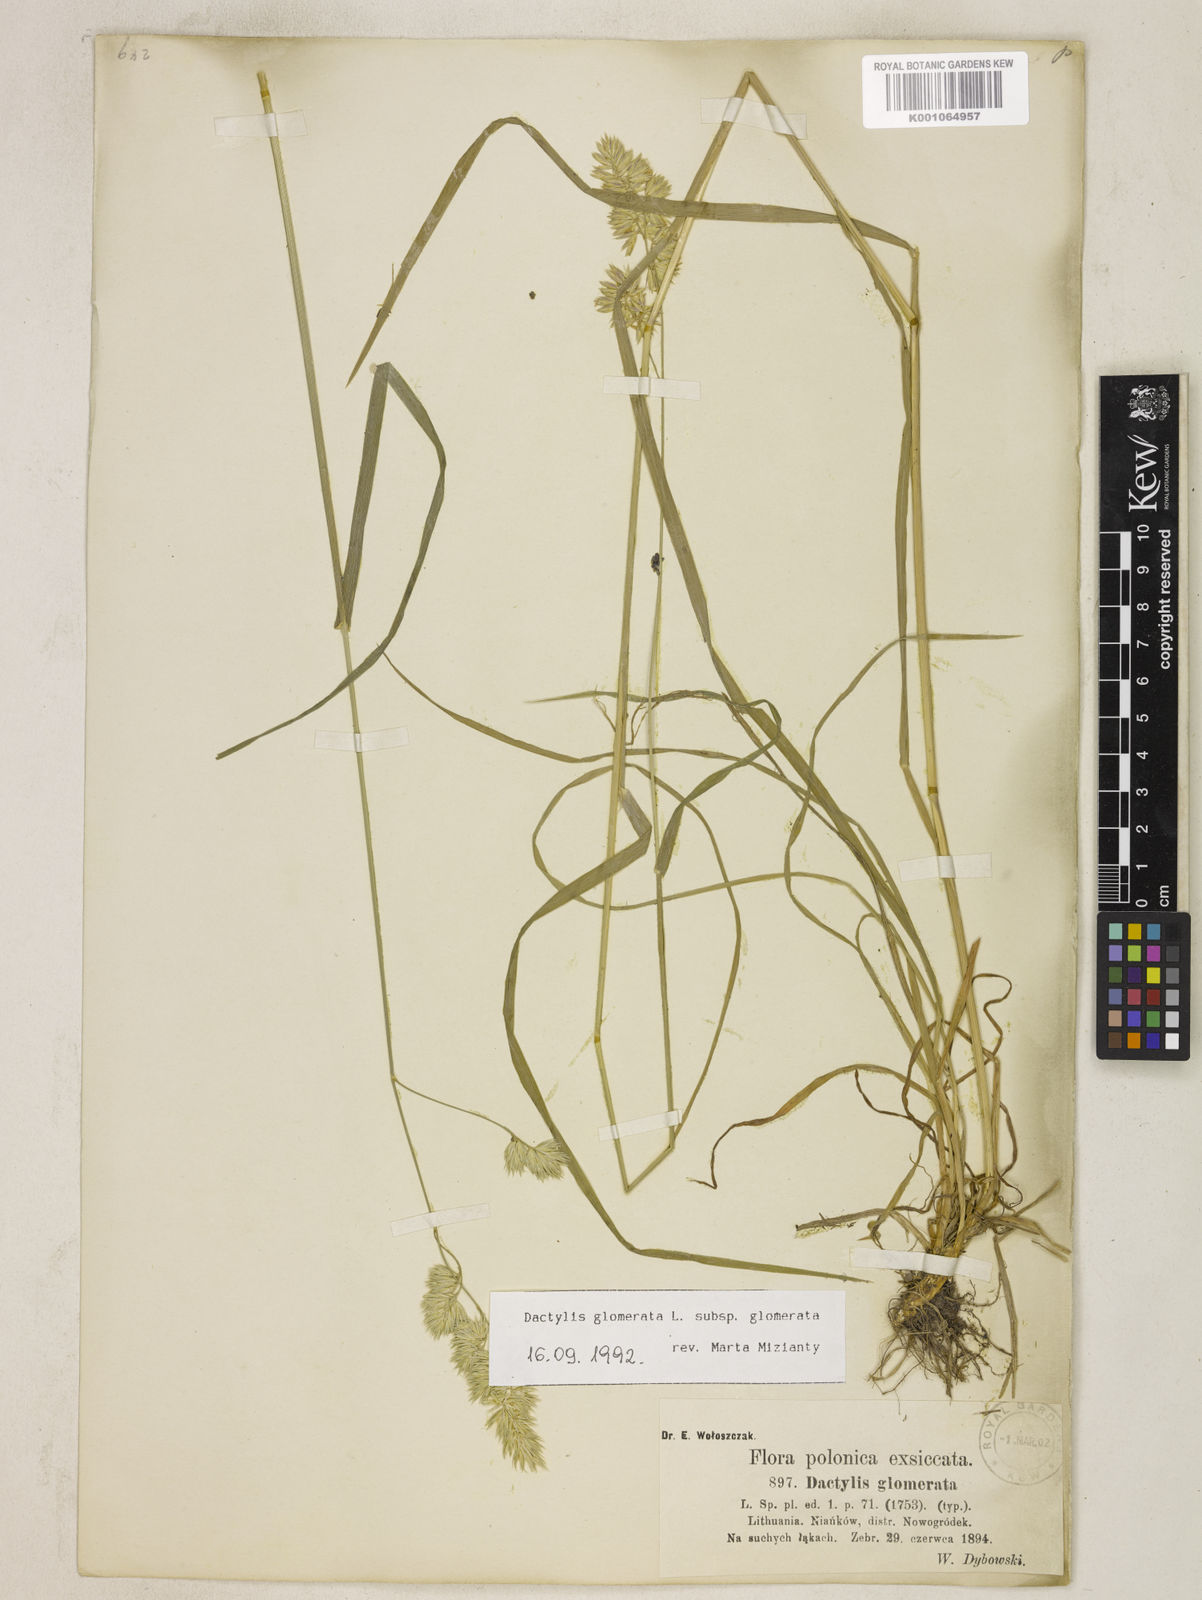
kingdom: Plantae
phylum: Tracheophyta
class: Liliopsida
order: Poales
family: Poaceae
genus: Dactylis
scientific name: Dactylis glomerata
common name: Orchardgrass
